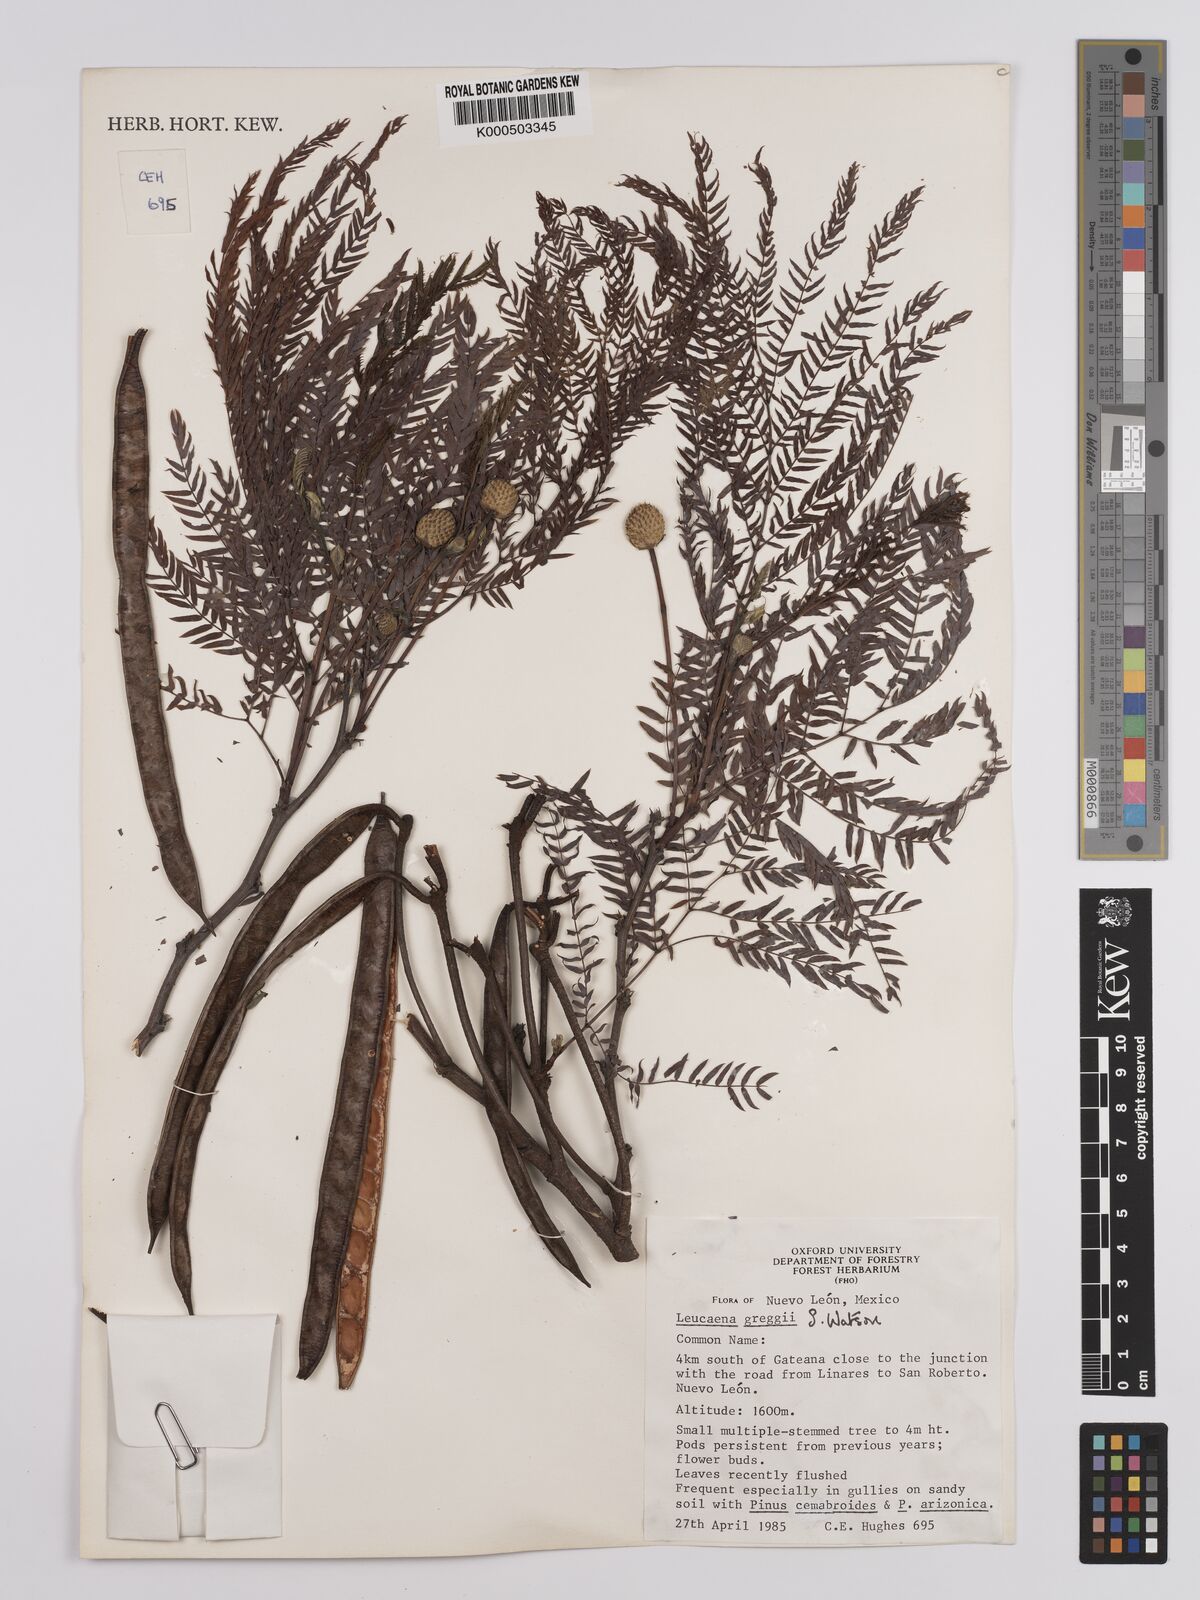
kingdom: Plantae
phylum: Tracheophyta
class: Magnoliopsida
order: Fabales
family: Fabaceae
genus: Leucaena
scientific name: Leucaena greggii
